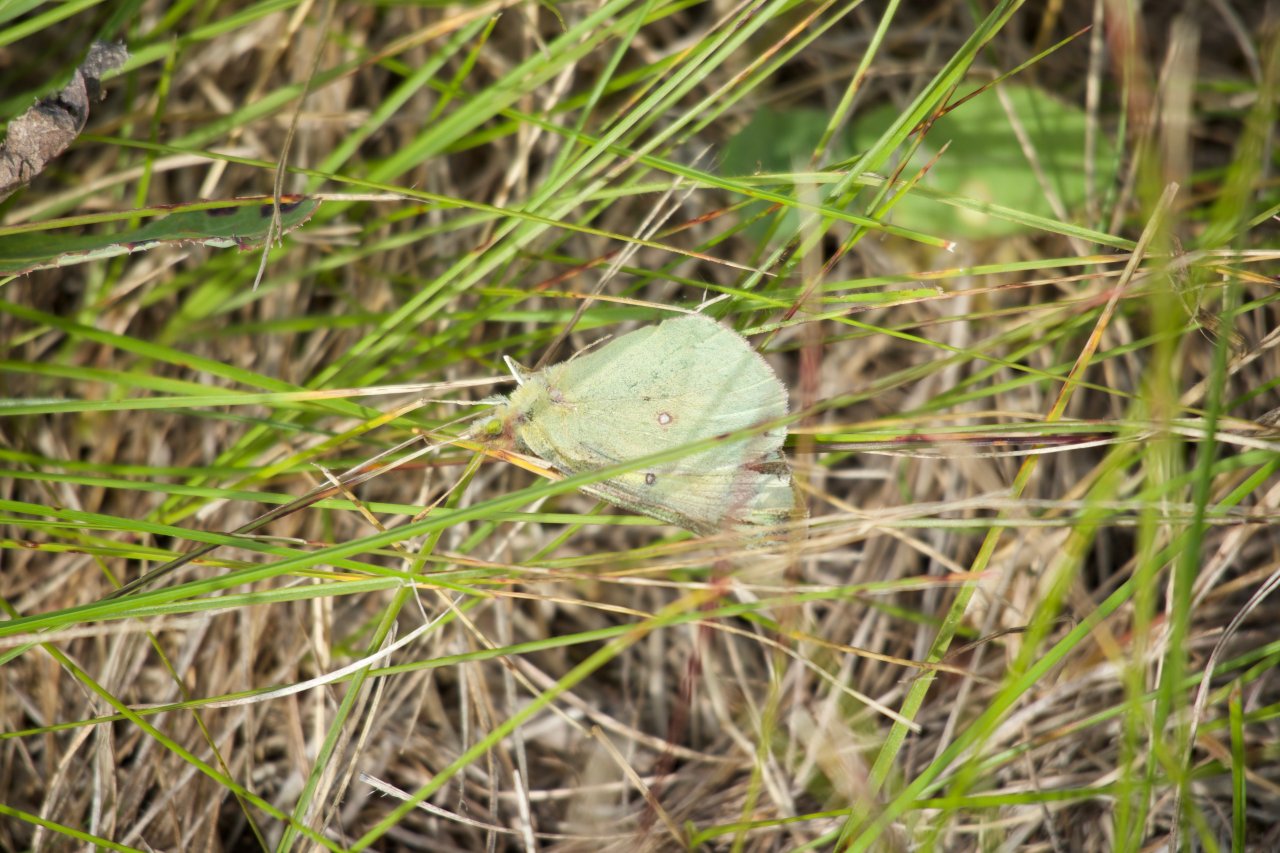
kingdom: Animalia
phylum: Arthropoda
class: Insecta
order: Lepidoptera
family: Pieridae
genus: Colias
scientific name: Colias philodice
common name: Clouded Sulphur
